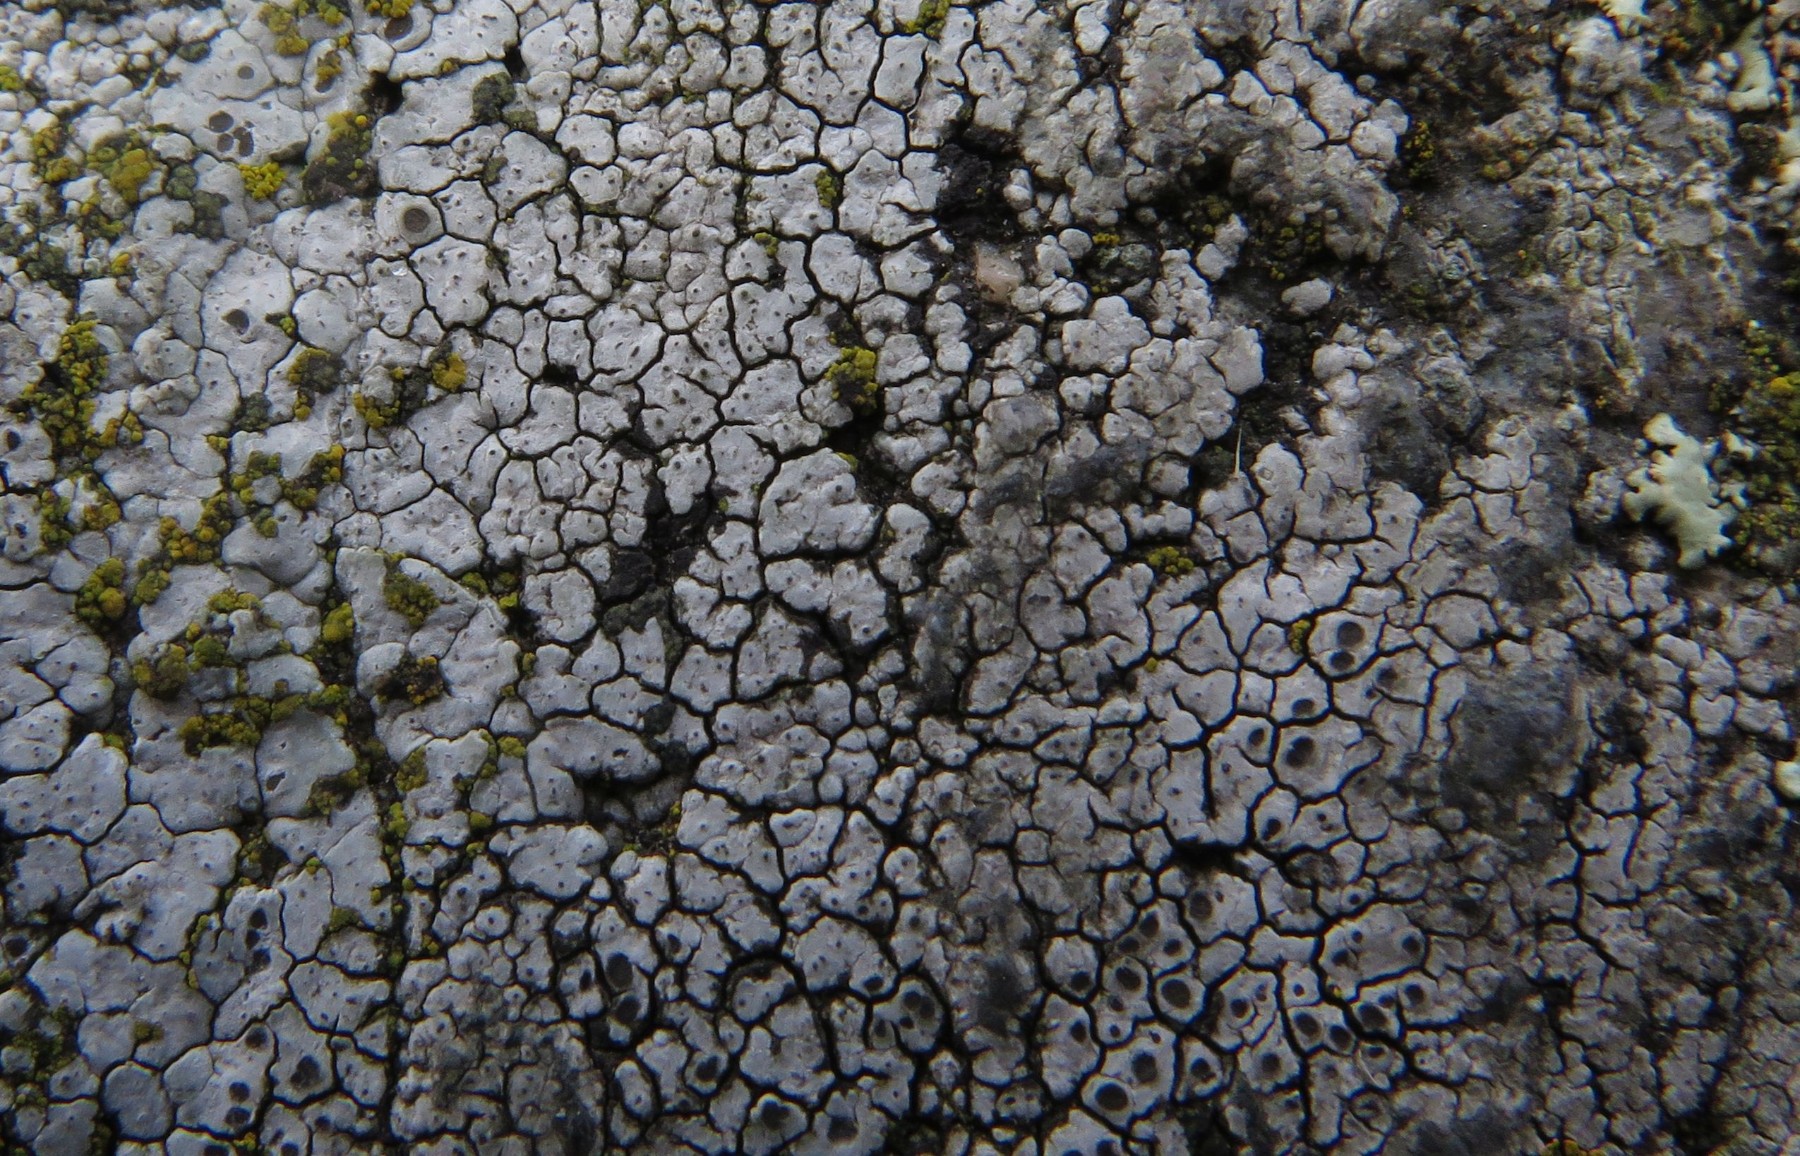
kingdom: Fungi
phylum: Ascomycota
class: Lecanoromycetes
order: Lecanorales
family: Tephromelataceae
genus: Tephromela
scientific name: Tephromela atra
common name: sortfrugtet kantskivelav
